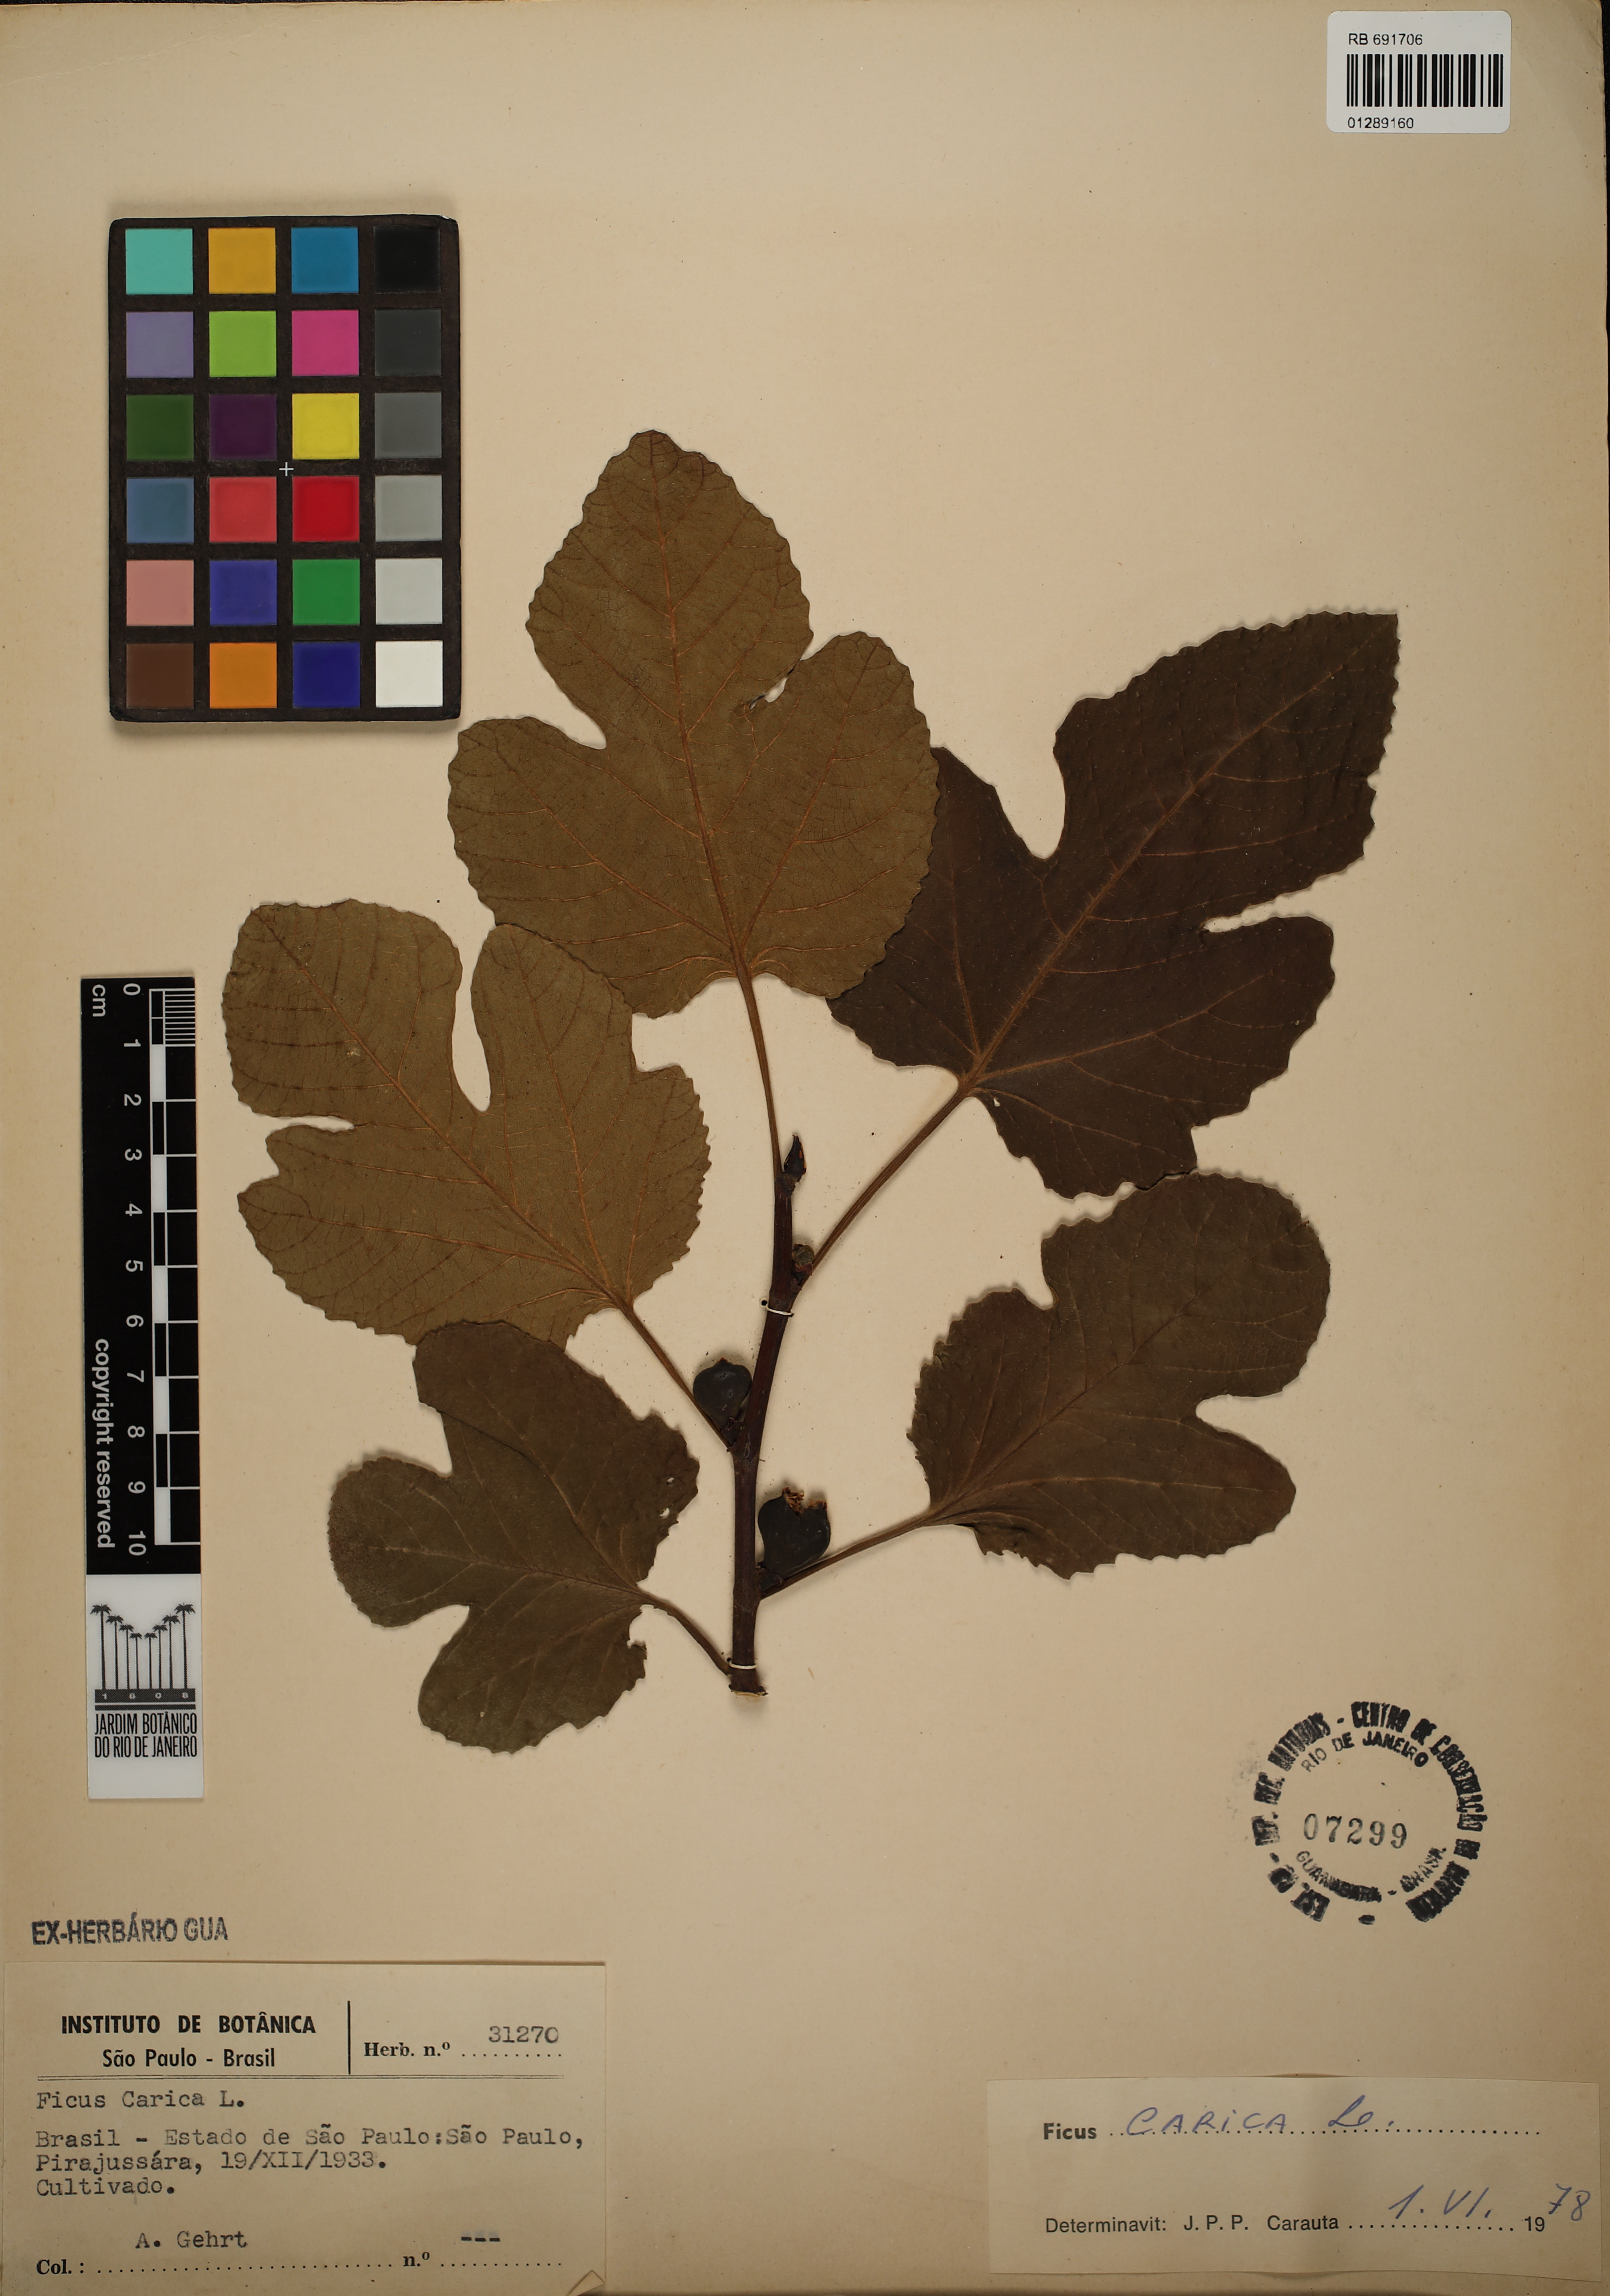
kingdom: Plantae
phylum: Tracheophyta
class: Magnoliopsida
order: Rosales
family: Moraceae
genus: Ficus
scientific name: Ficus carica
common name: Fig
